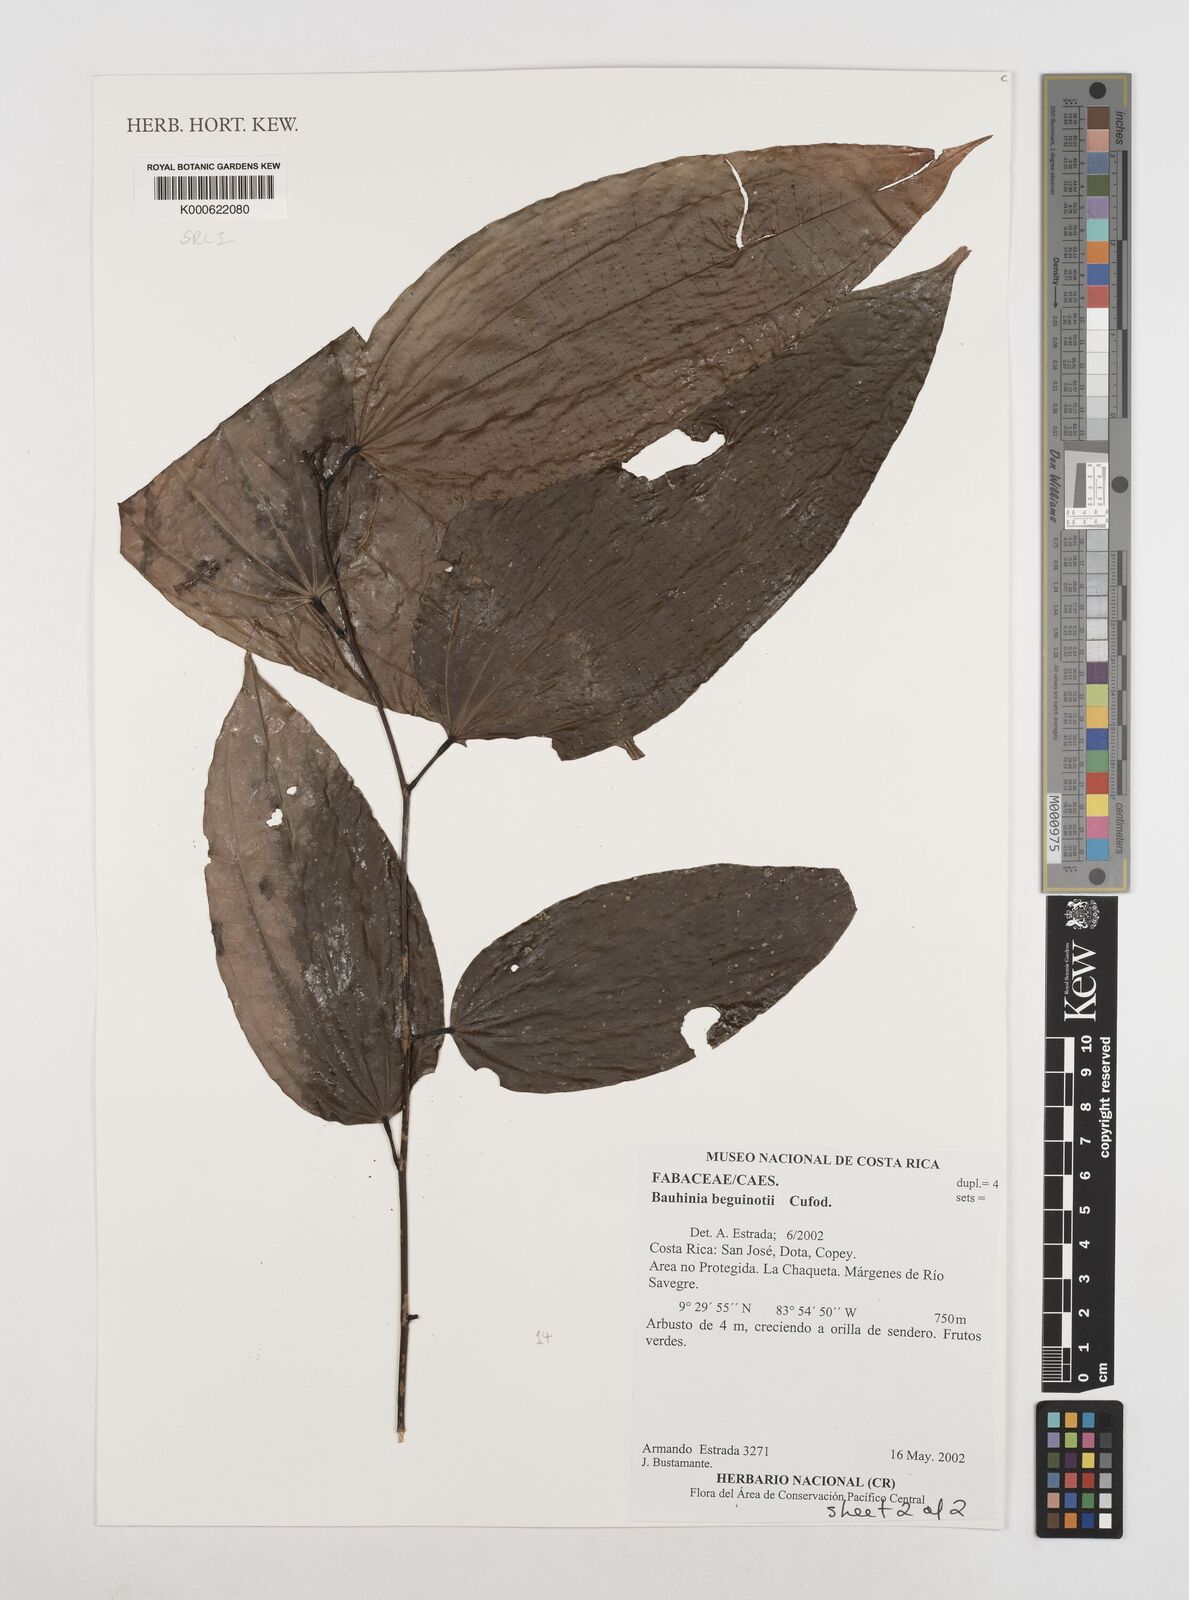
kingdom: Plantae
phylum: Tracheophyta
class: Magnoliopsida
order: Fabales
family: Fabaceae
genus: Bauhinia
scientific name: Bauhinia beguinotii
